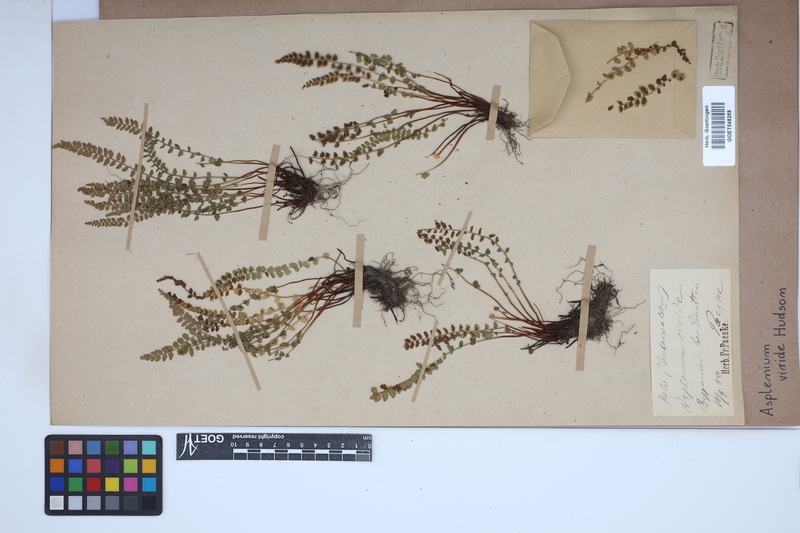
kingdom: Plantae
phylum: Tracheophyta
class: Polypodiopsida
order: Polypodiales
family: Aspleniaceae
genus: Asplenium
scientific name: Asplenium viride
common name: Green spleenwort
